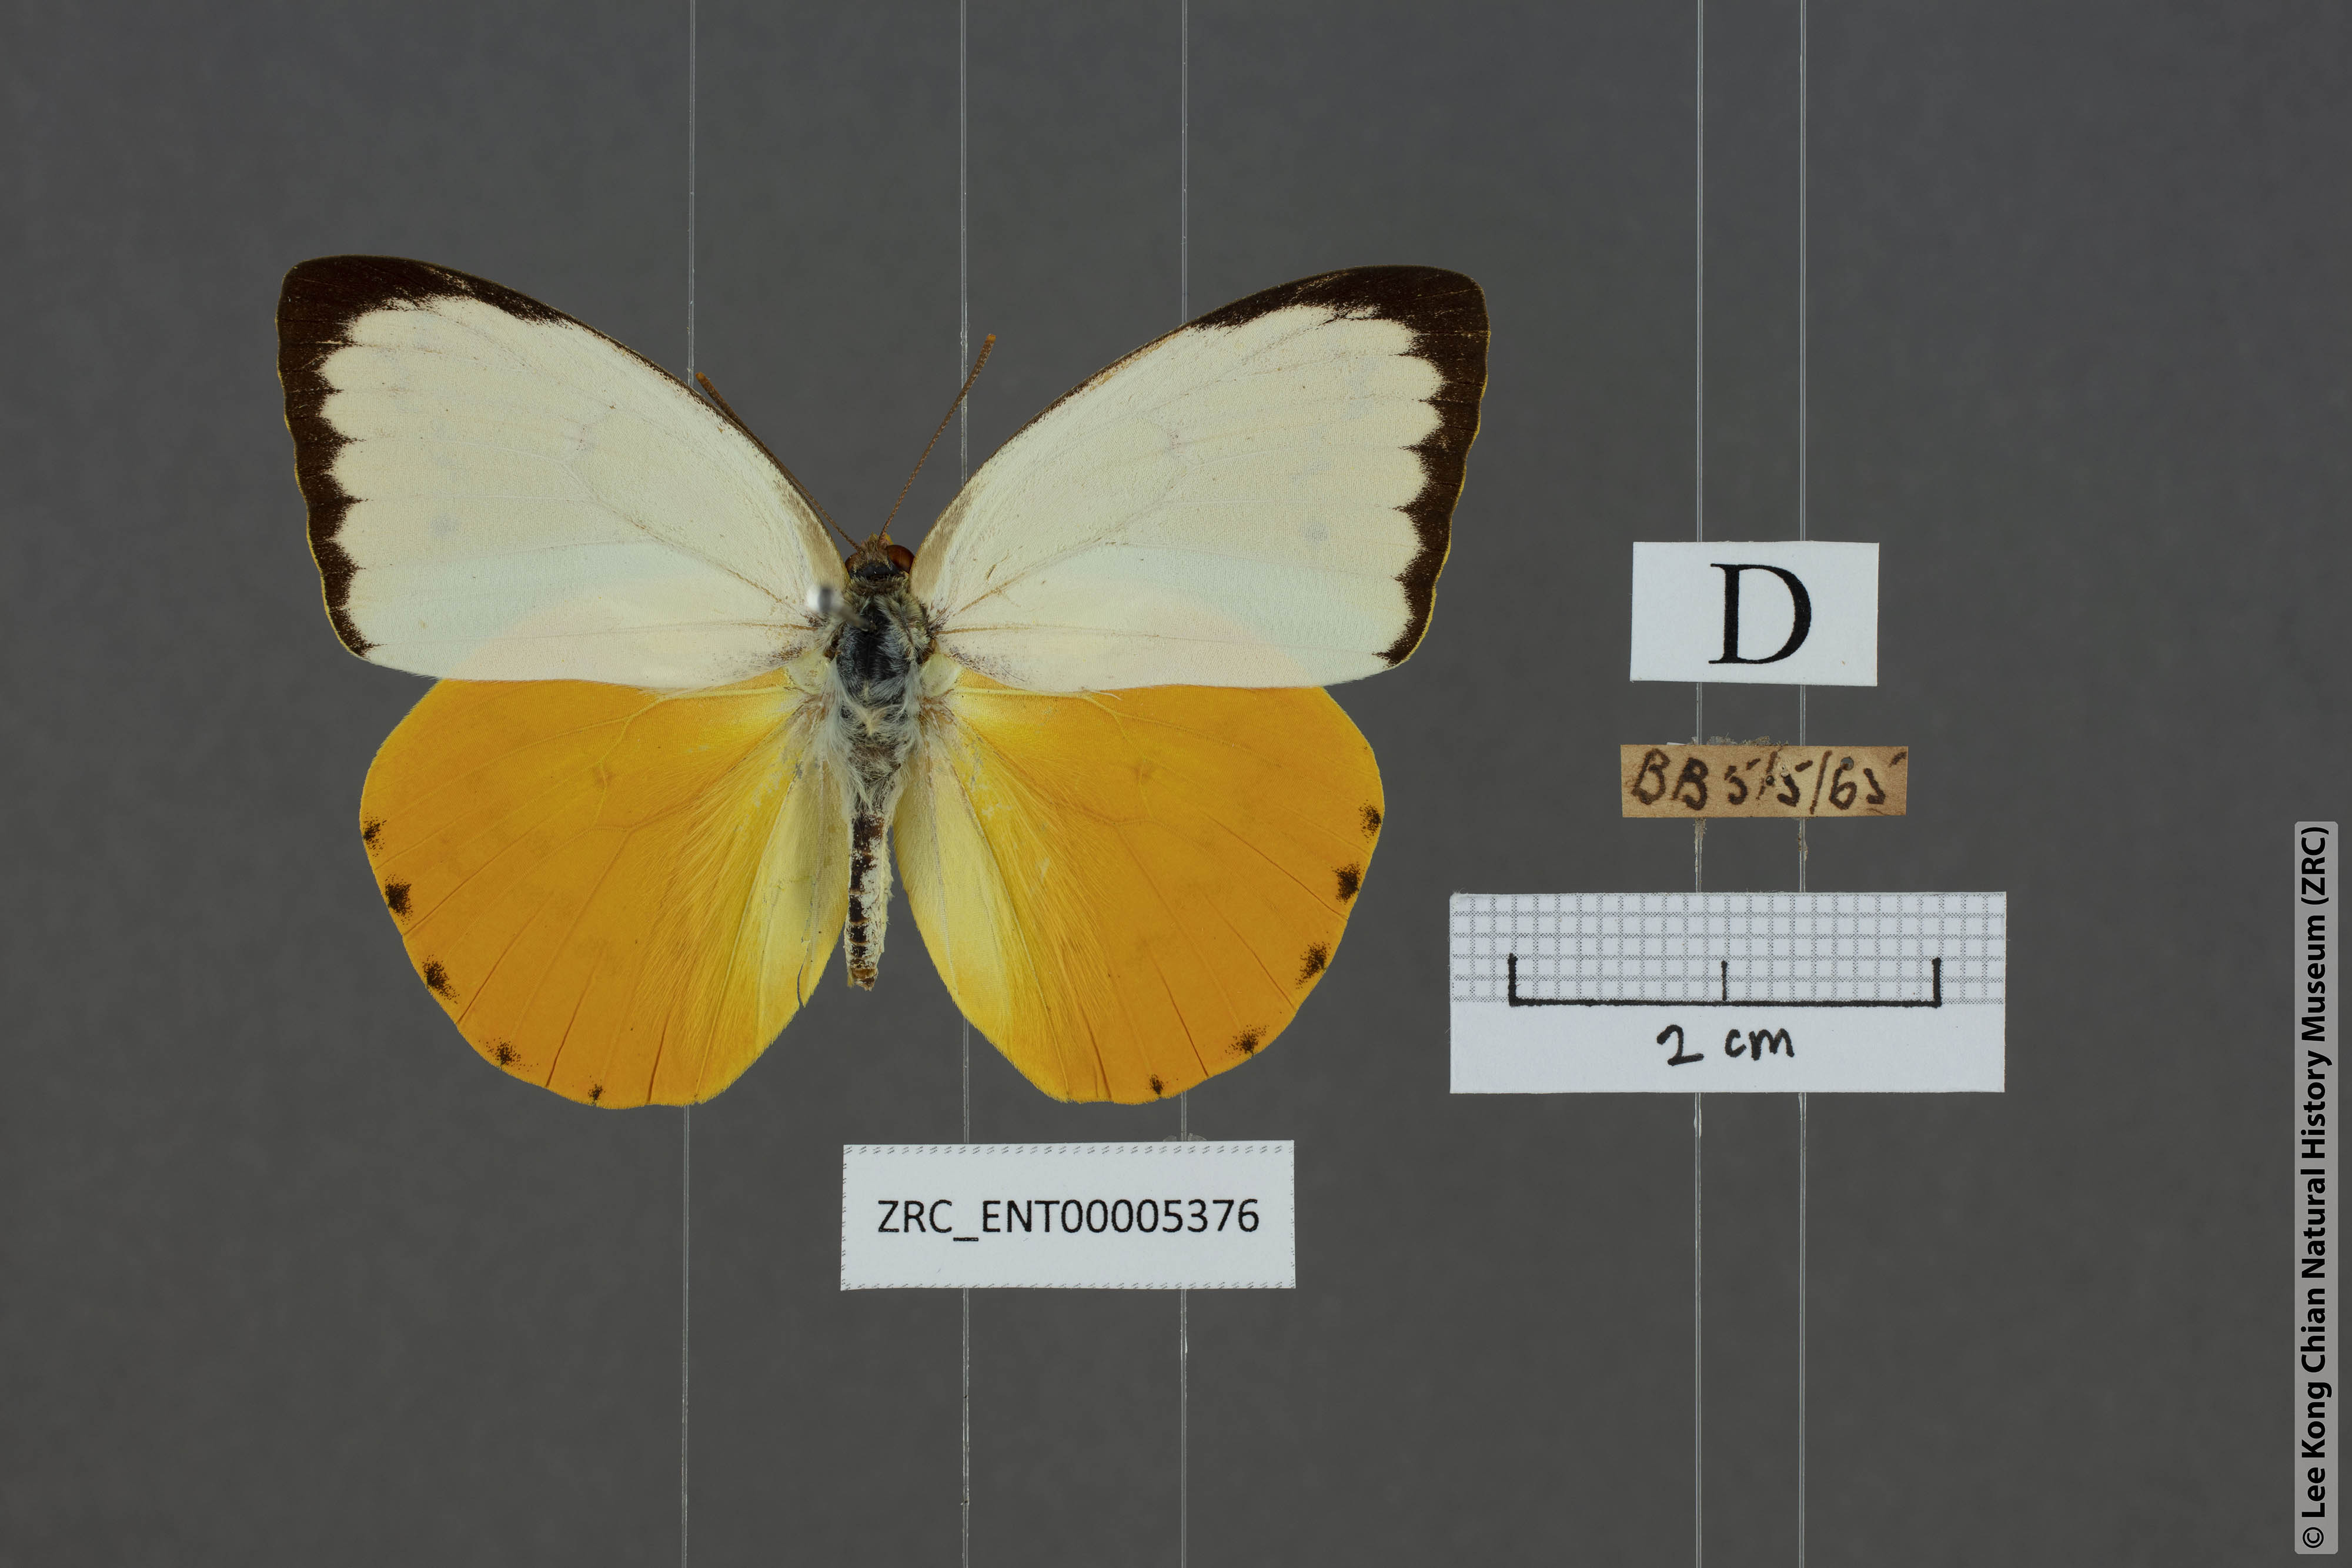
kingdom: Animalia
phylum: Arthropoda
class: Insecta
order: Lepidoptera
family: Pieridae
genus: Catopsilia
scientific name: Catopsilia scylla
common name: Orange emigrant
